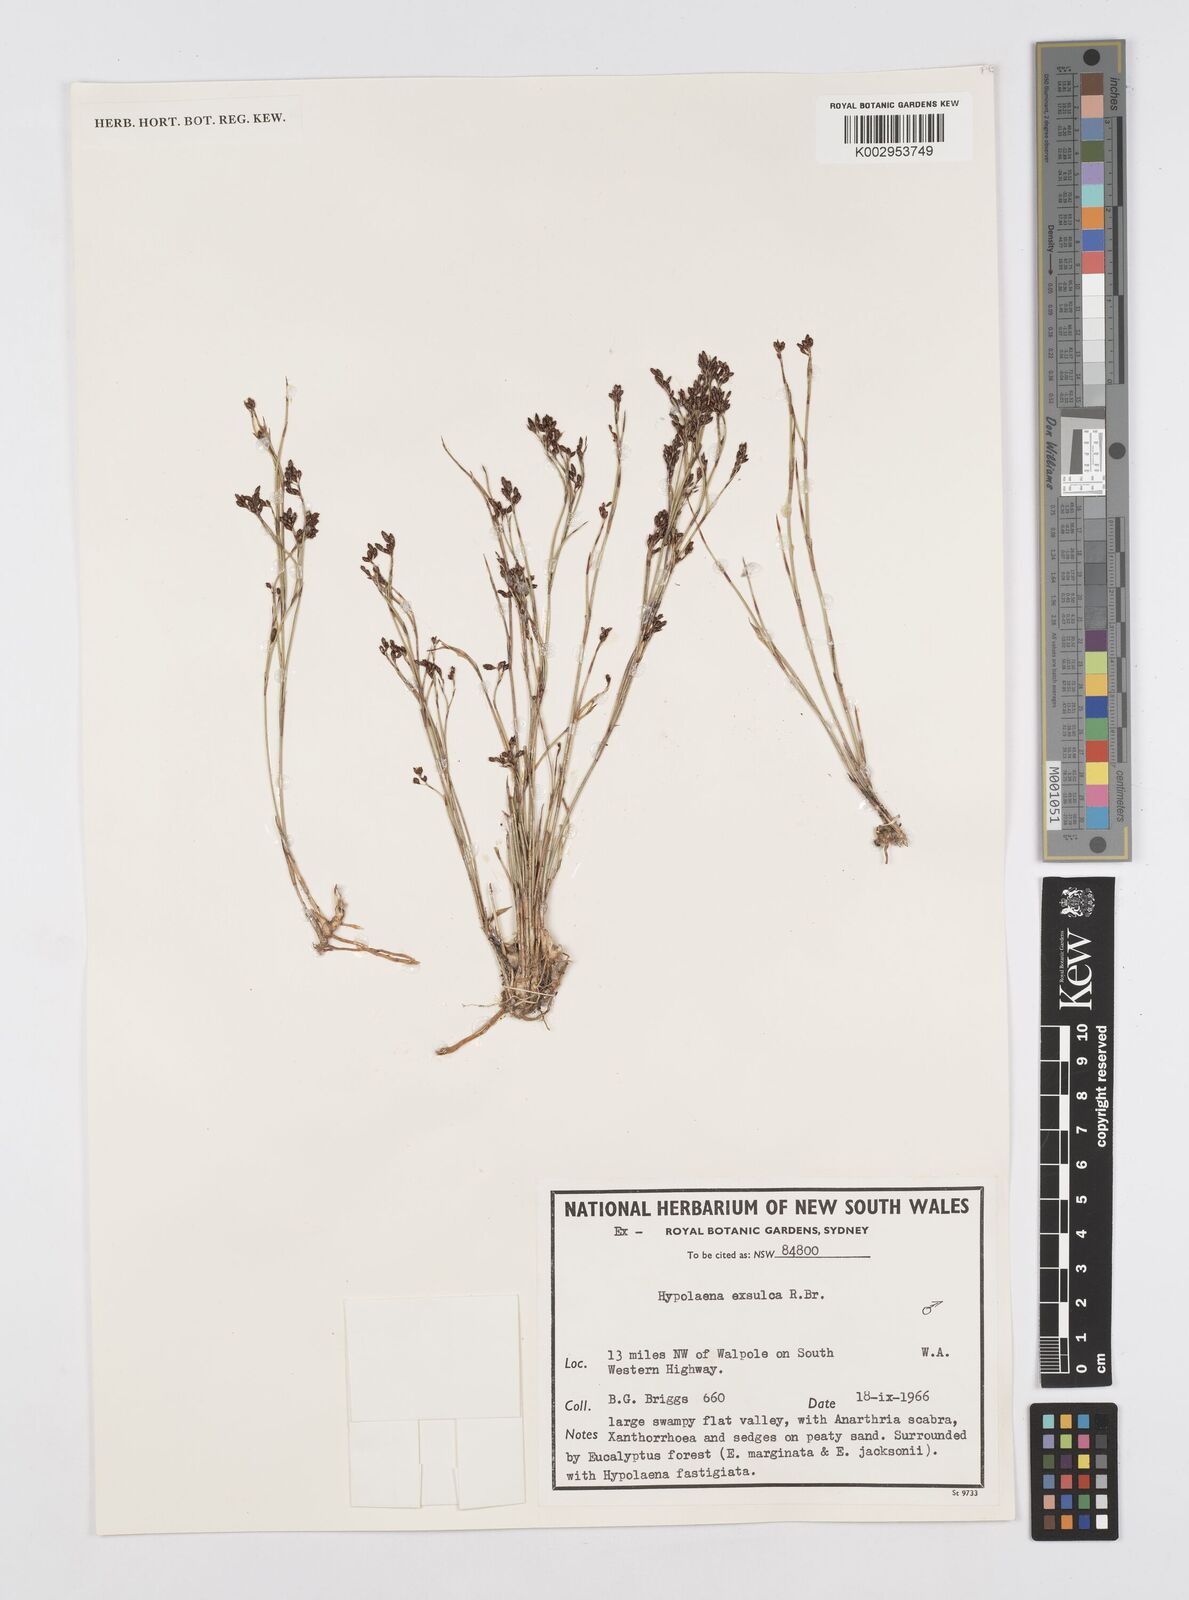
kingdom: Plantae
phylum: Tracheophyta
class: Liliopsida
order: Poales
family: Restionaceae
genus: Hypolaena
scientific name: Hypolaena exsulca
